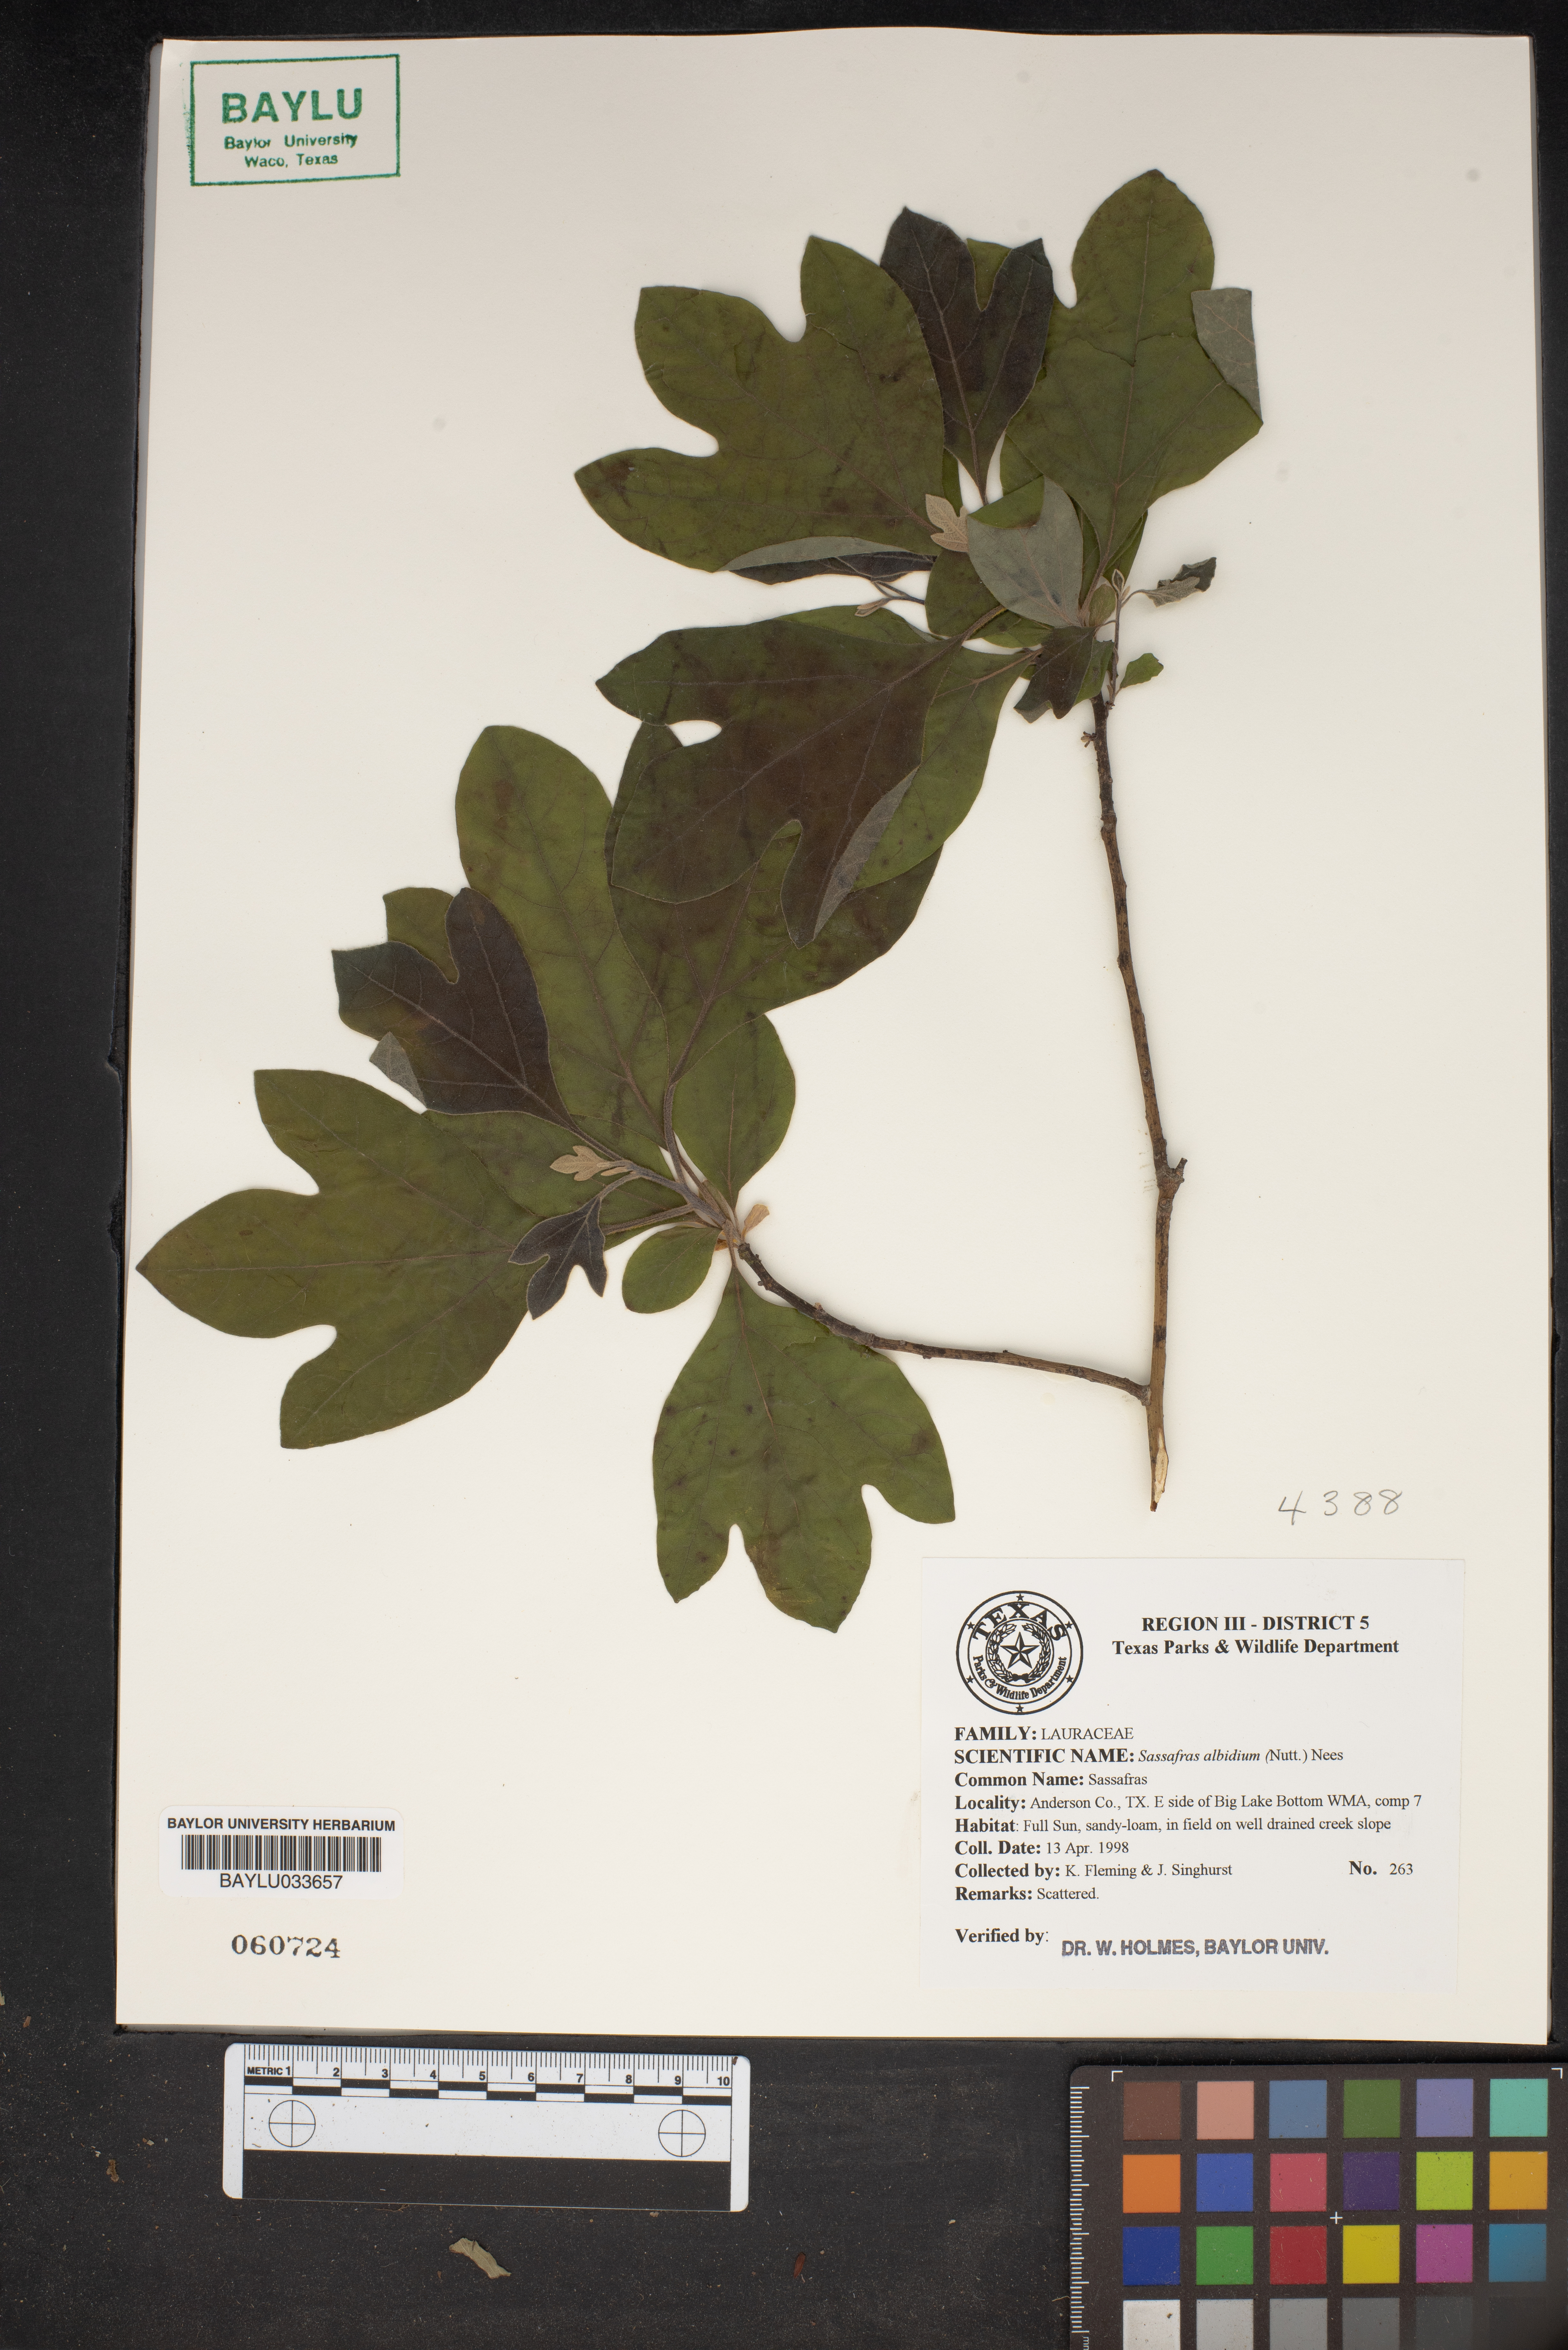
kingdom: Plantae
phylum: Tracheophyta
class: Magnoliopsida
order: Laurales
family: Lauraceae
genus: Sassafras
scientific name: Sassafras albidum
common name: Sassafras
